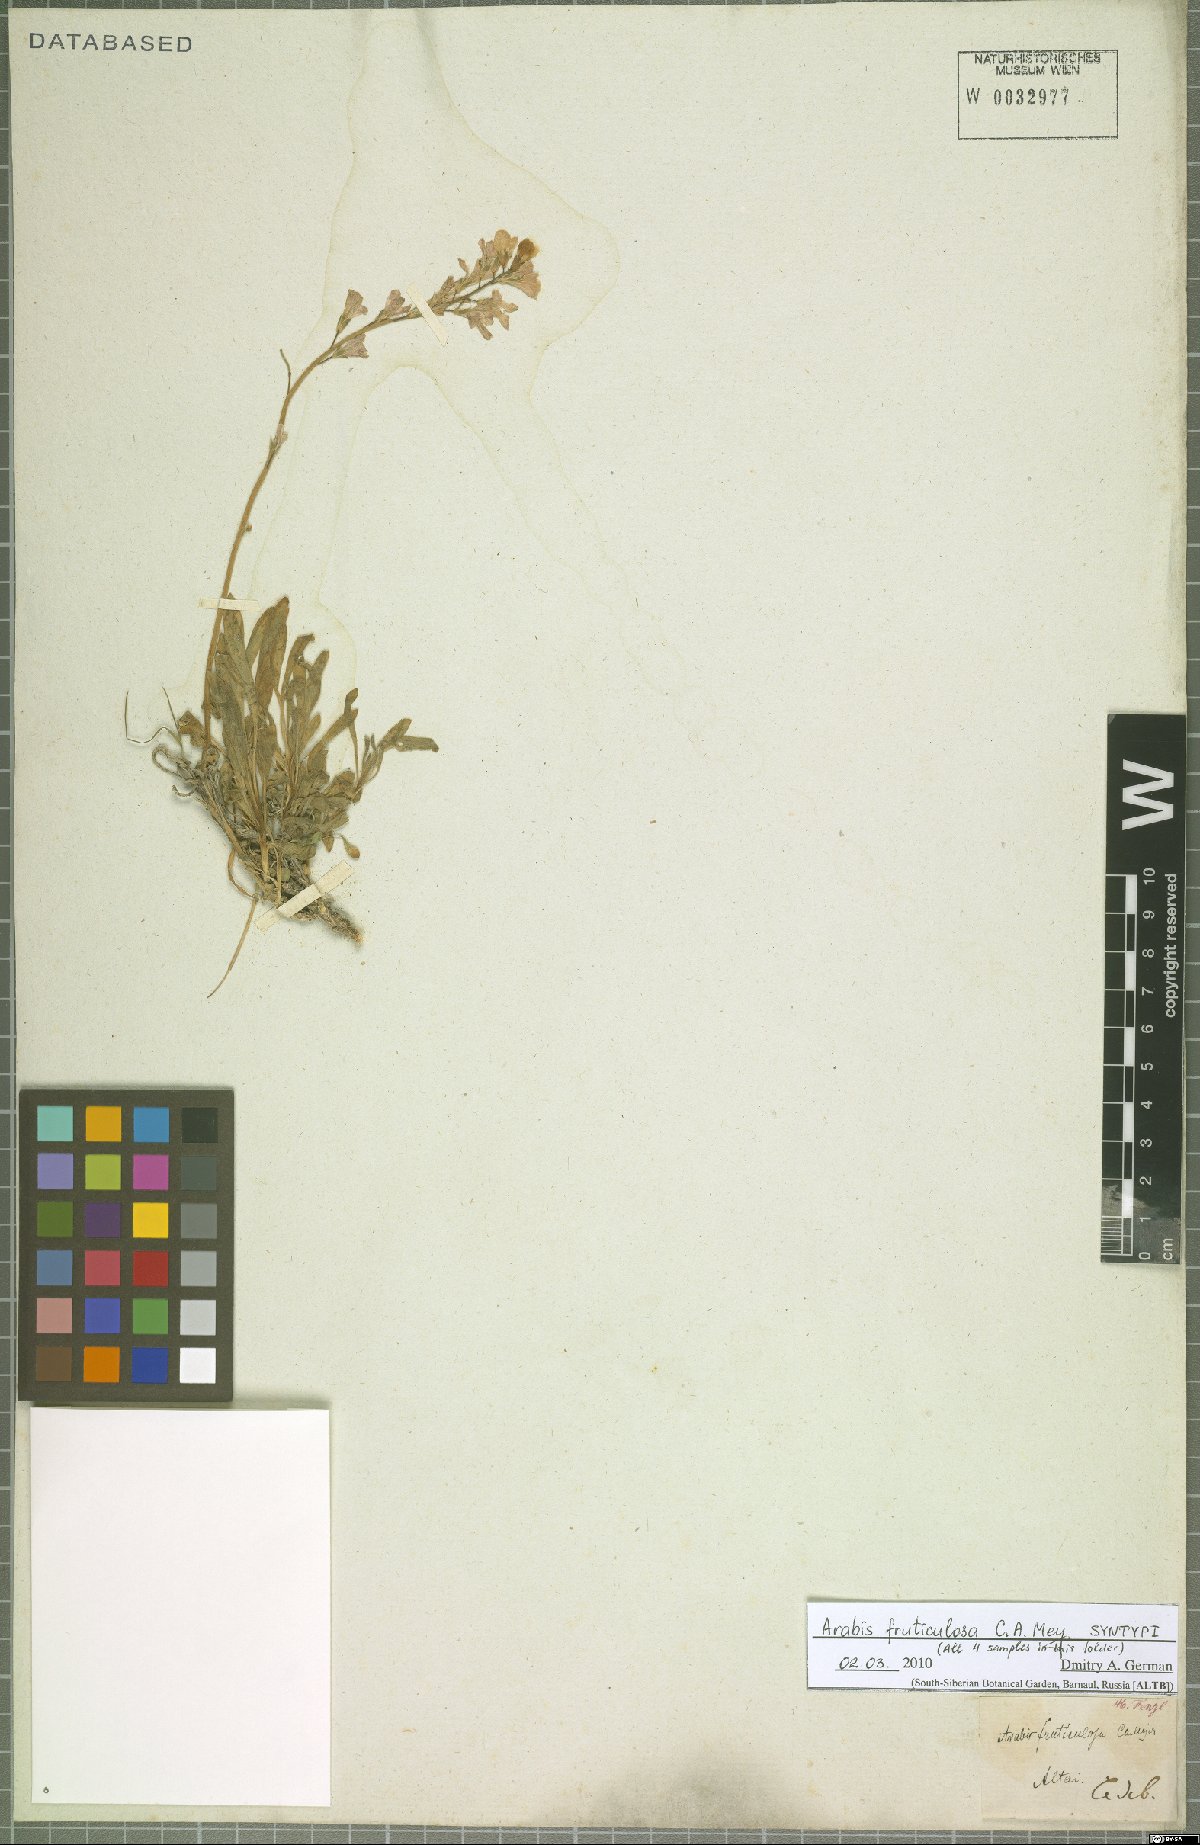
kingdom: Plantae
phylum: Tracheophyta
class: Magnoliopsida
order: Brassicales
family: Brassicaceae
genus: Dendroarabis
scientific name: Dendroarabis fruticulosa
